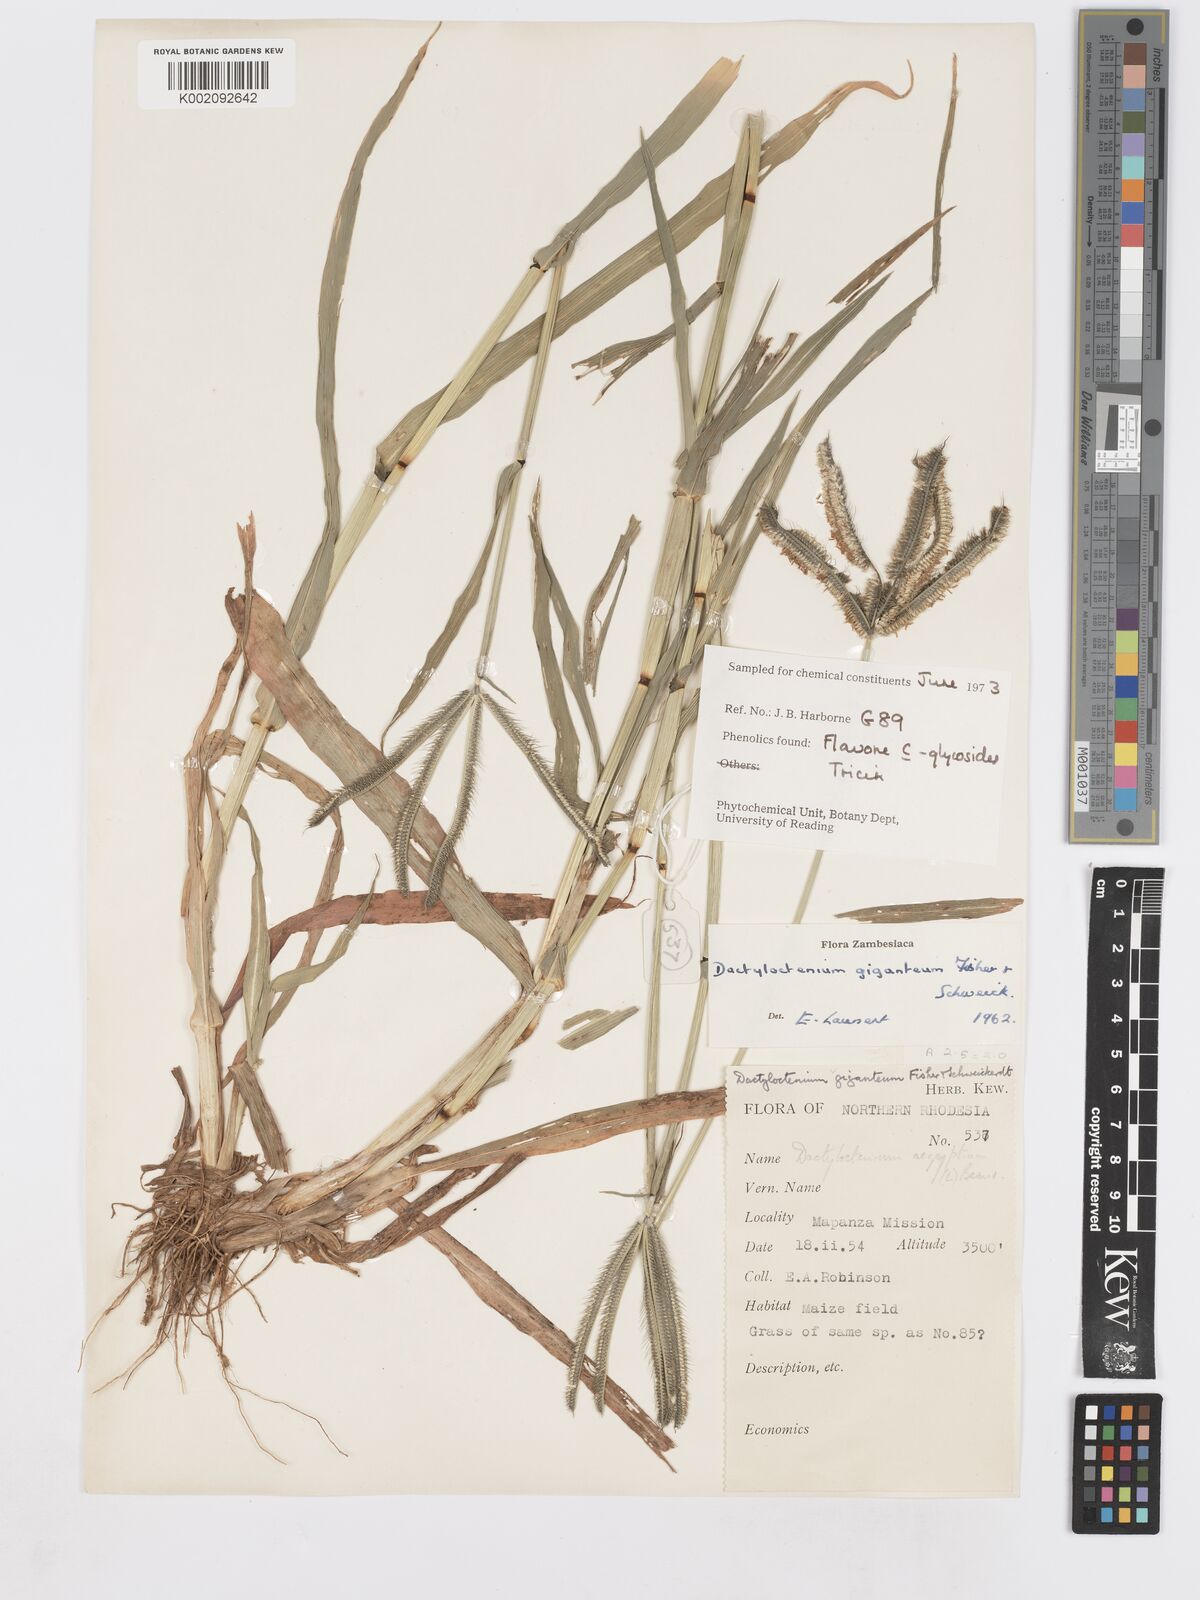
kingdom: Plantae
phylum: Tracheophyta
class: Liliopsida
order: Poales
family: Poaceae
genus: Dactyloctenium
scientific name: Dactyloctenium giganteum
